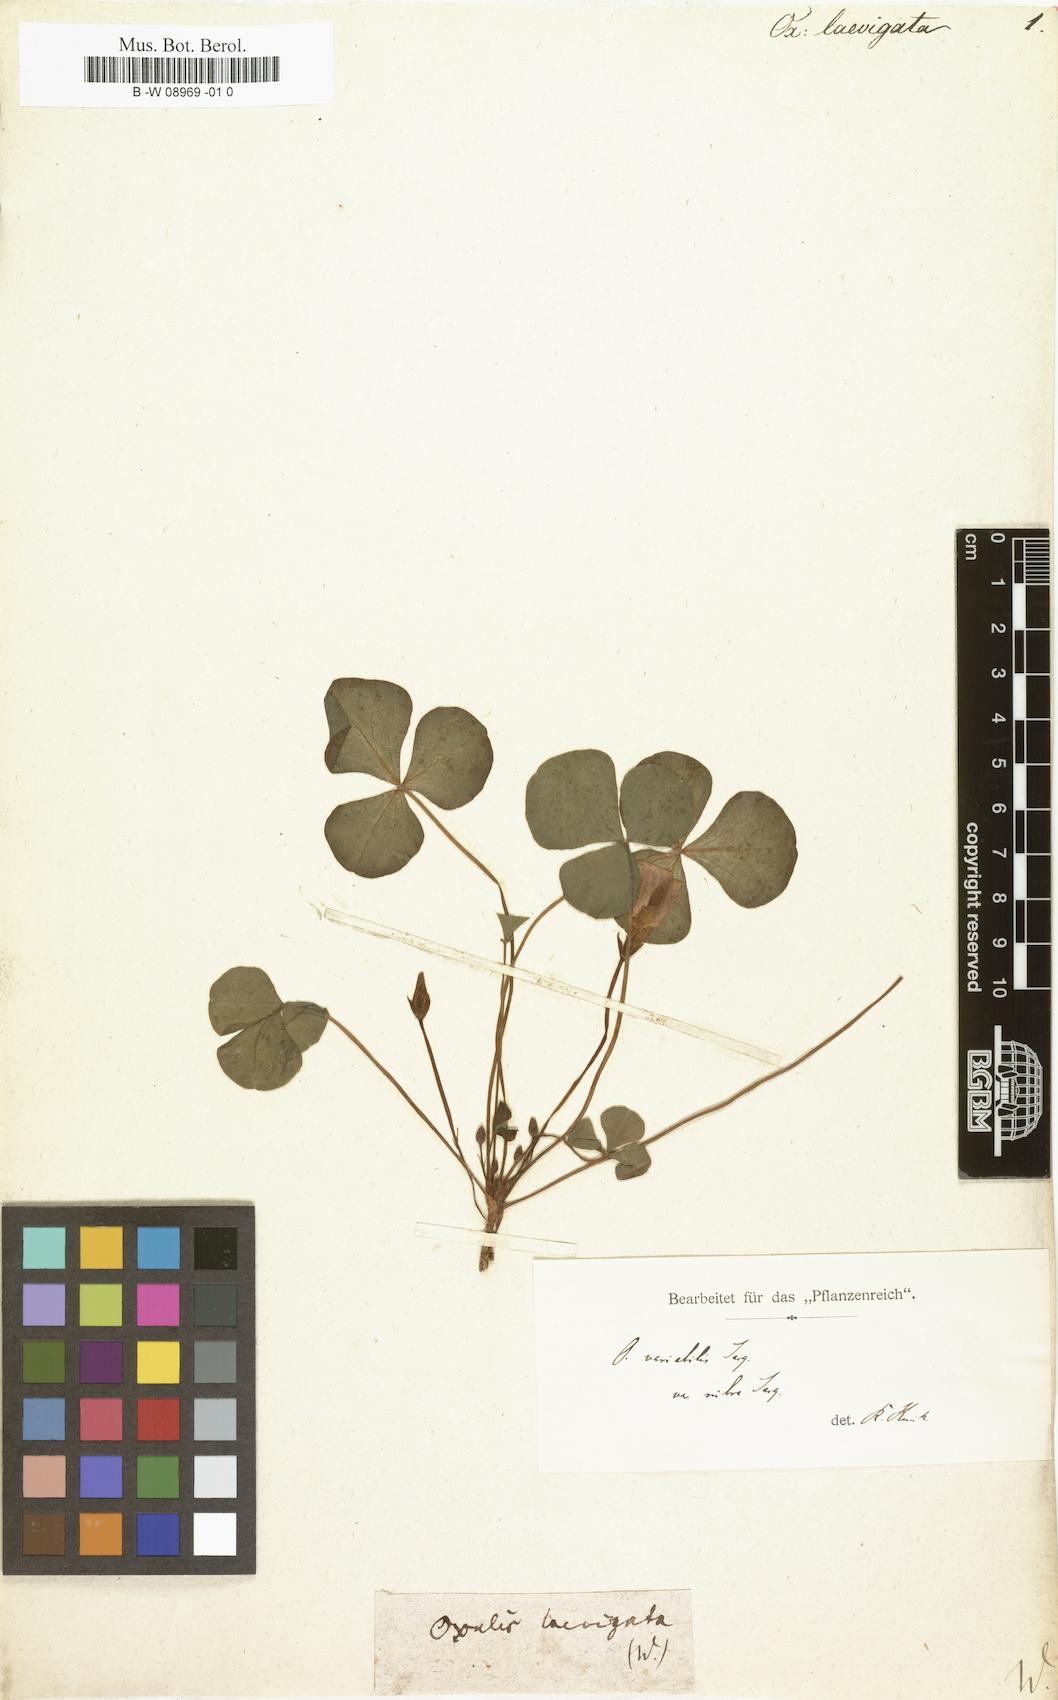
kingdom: Plantae
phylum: Tracheophyta
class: Magnoliopsida
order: Oxalidales
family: Oxalidaceae
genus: Oxalis
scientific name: Oxalis purpurea
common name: Purple woodsorrel
